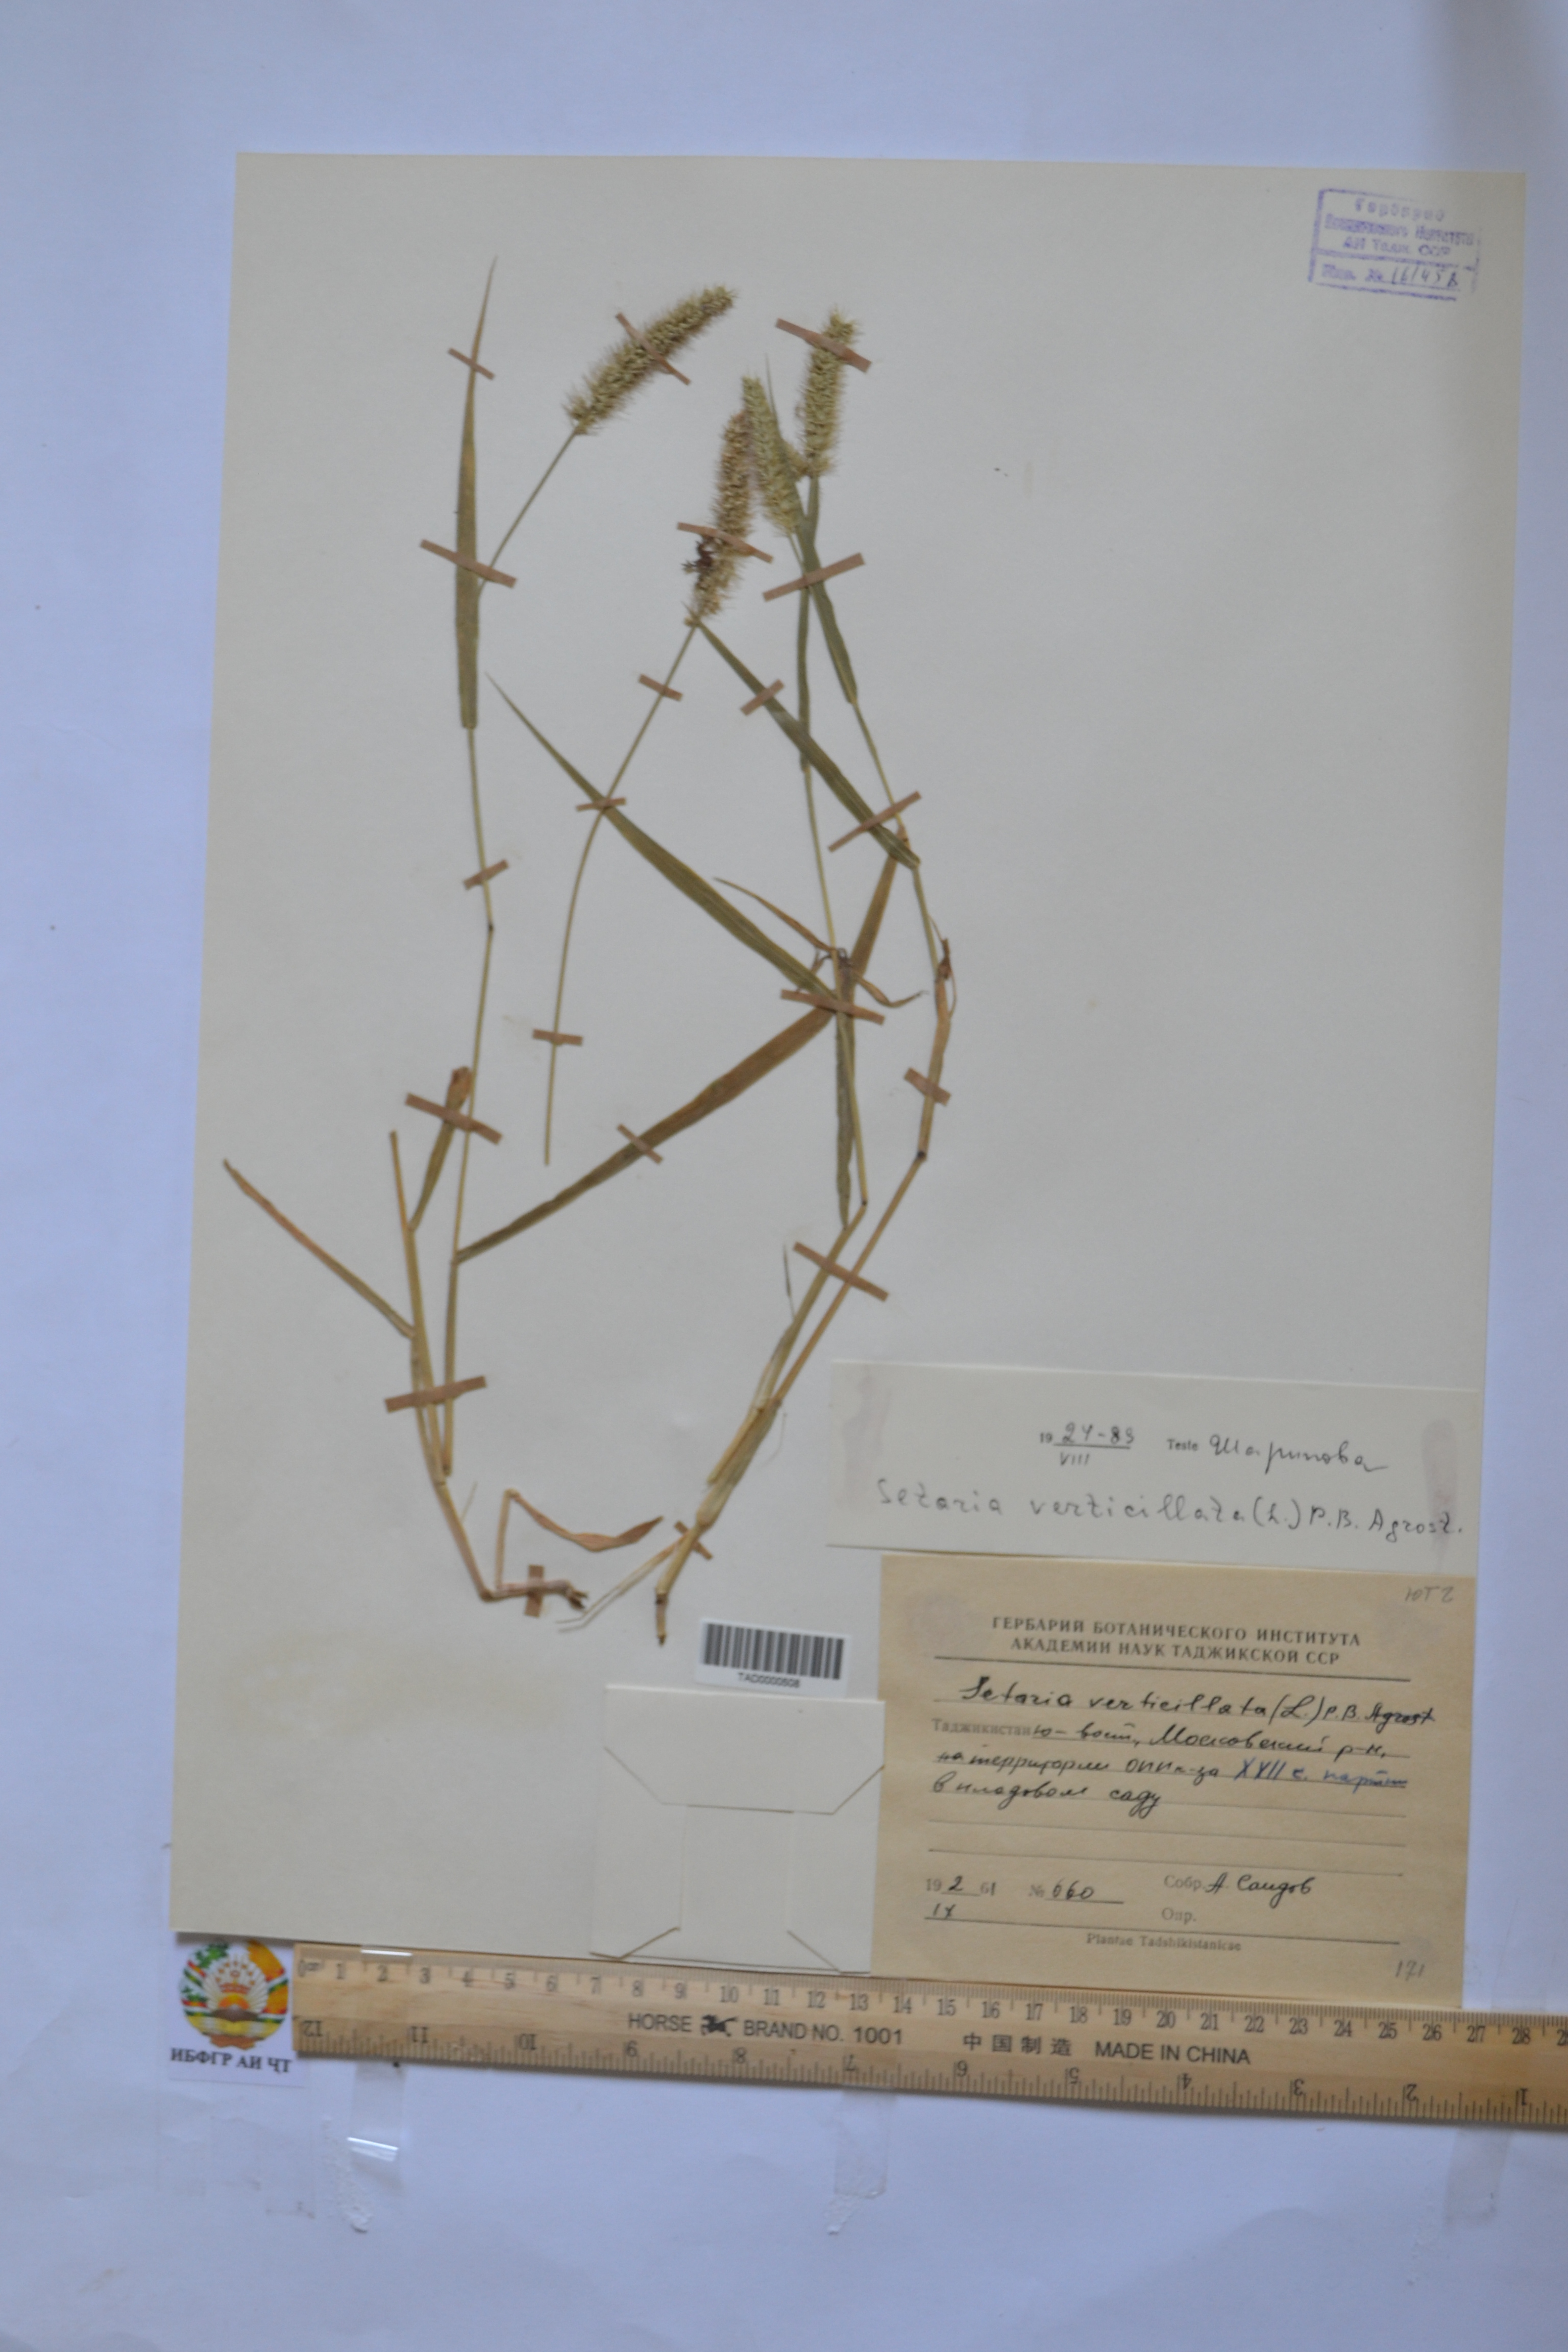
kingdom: Plantae
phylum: Tracheophyta
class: Liliopsida
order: Poales
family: Poaceae
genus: Setaria
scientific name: Setaria verticillata
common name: Hooked bristlegrass
